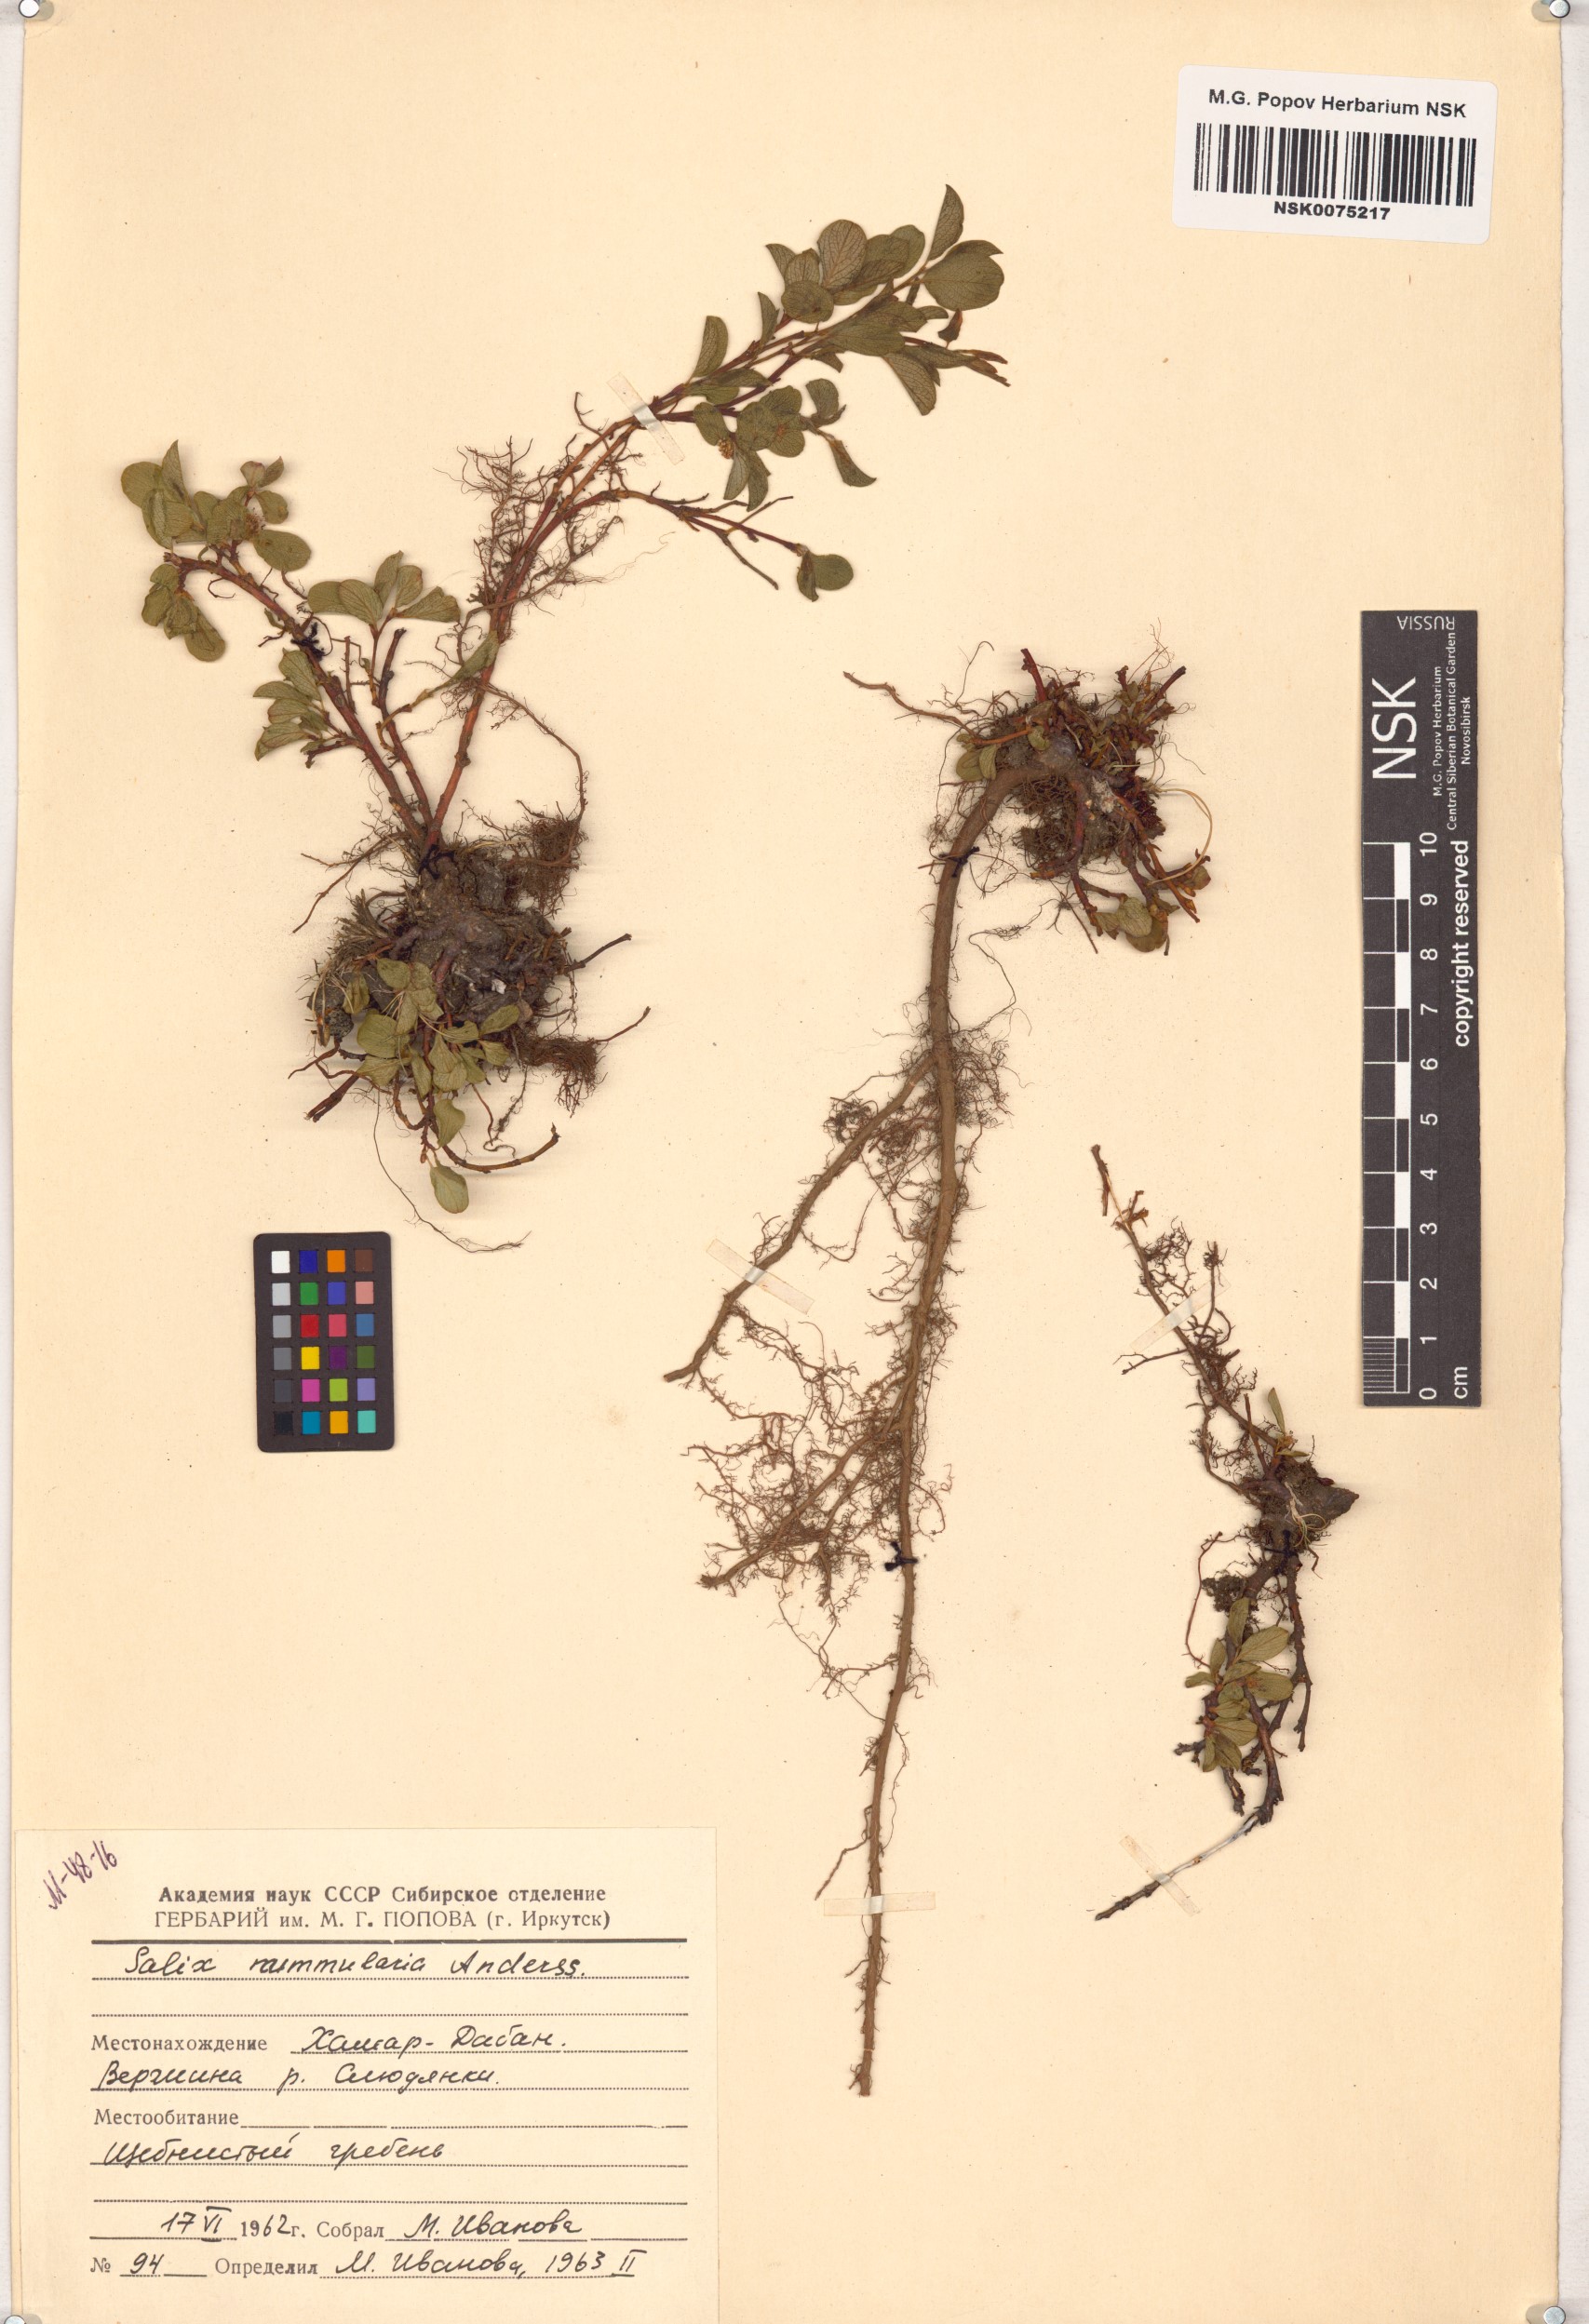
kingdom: Plantae
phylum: Tracheophyta
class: Magnoliopsida
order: Malpighiales
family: Salicaceae
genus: Salix
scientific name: Salix nummularia
